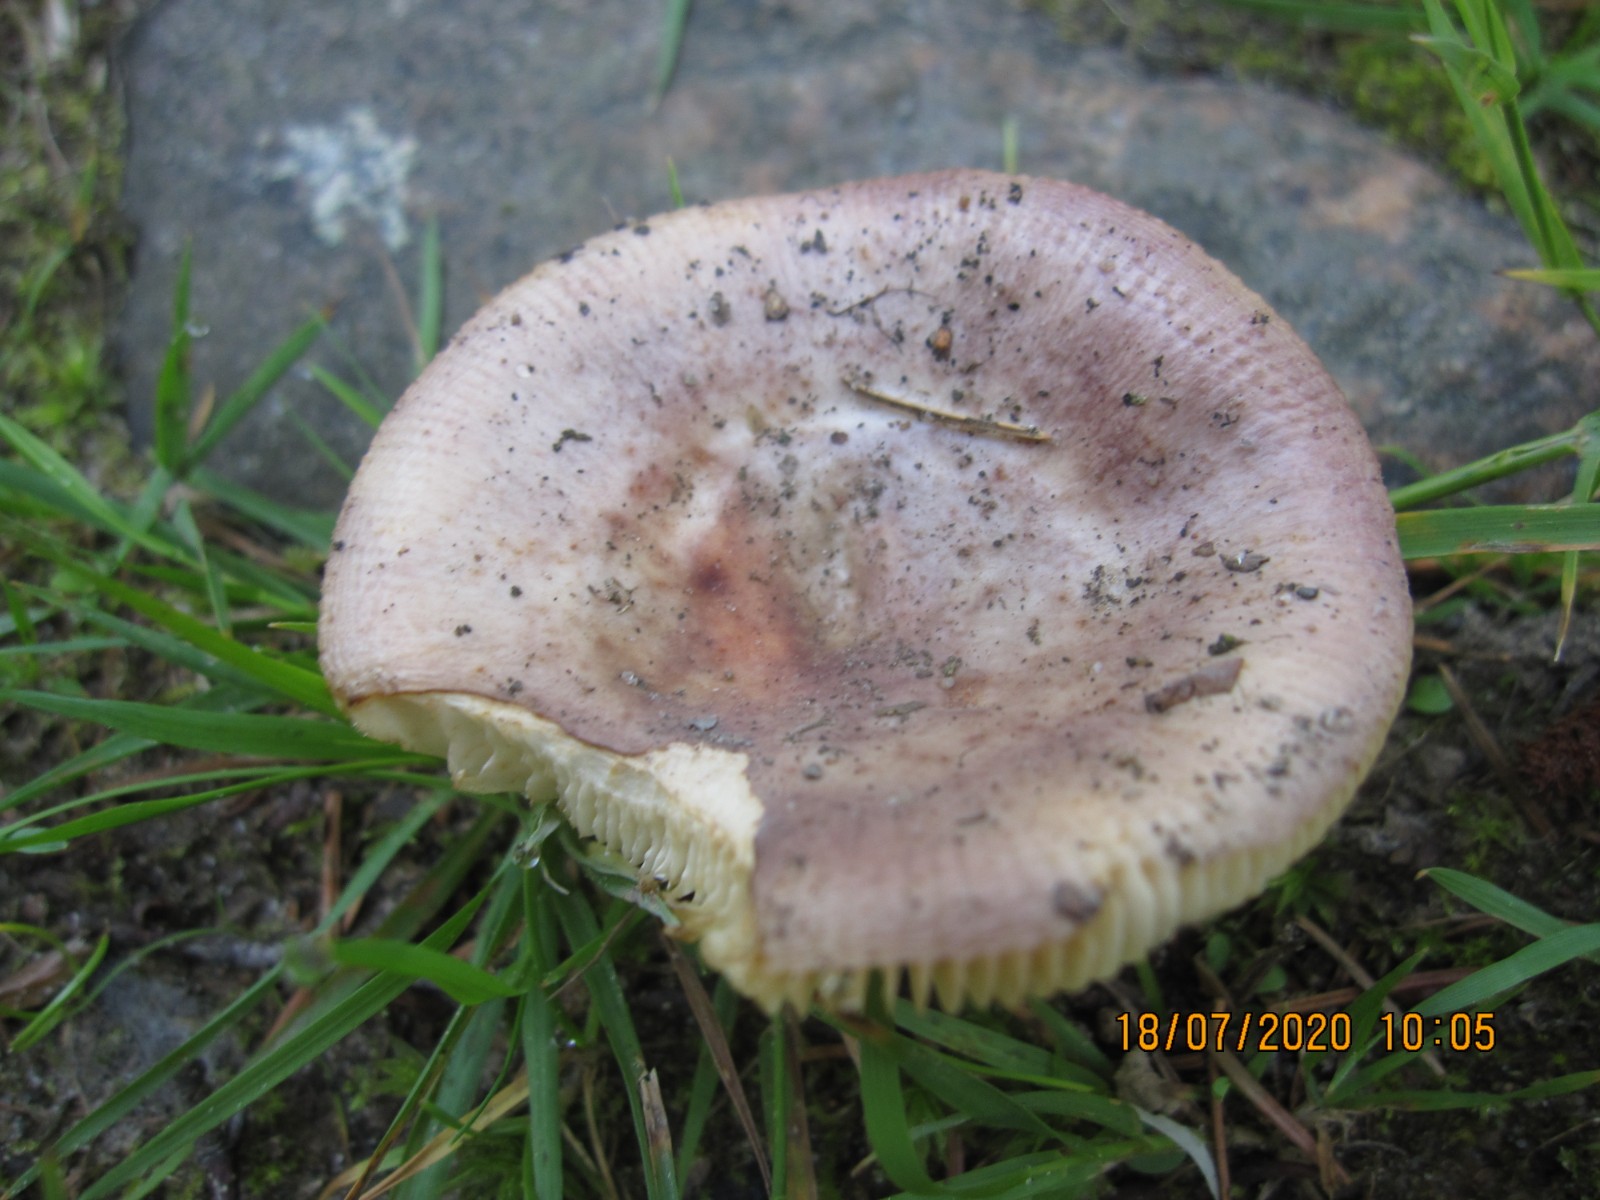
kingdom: Fungi
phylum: Basidiomycota
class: Agaricomycetes
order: Russulales
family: Russulaceae
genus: Russula
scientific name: Russula puellaris
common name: gulstokket skørhat
